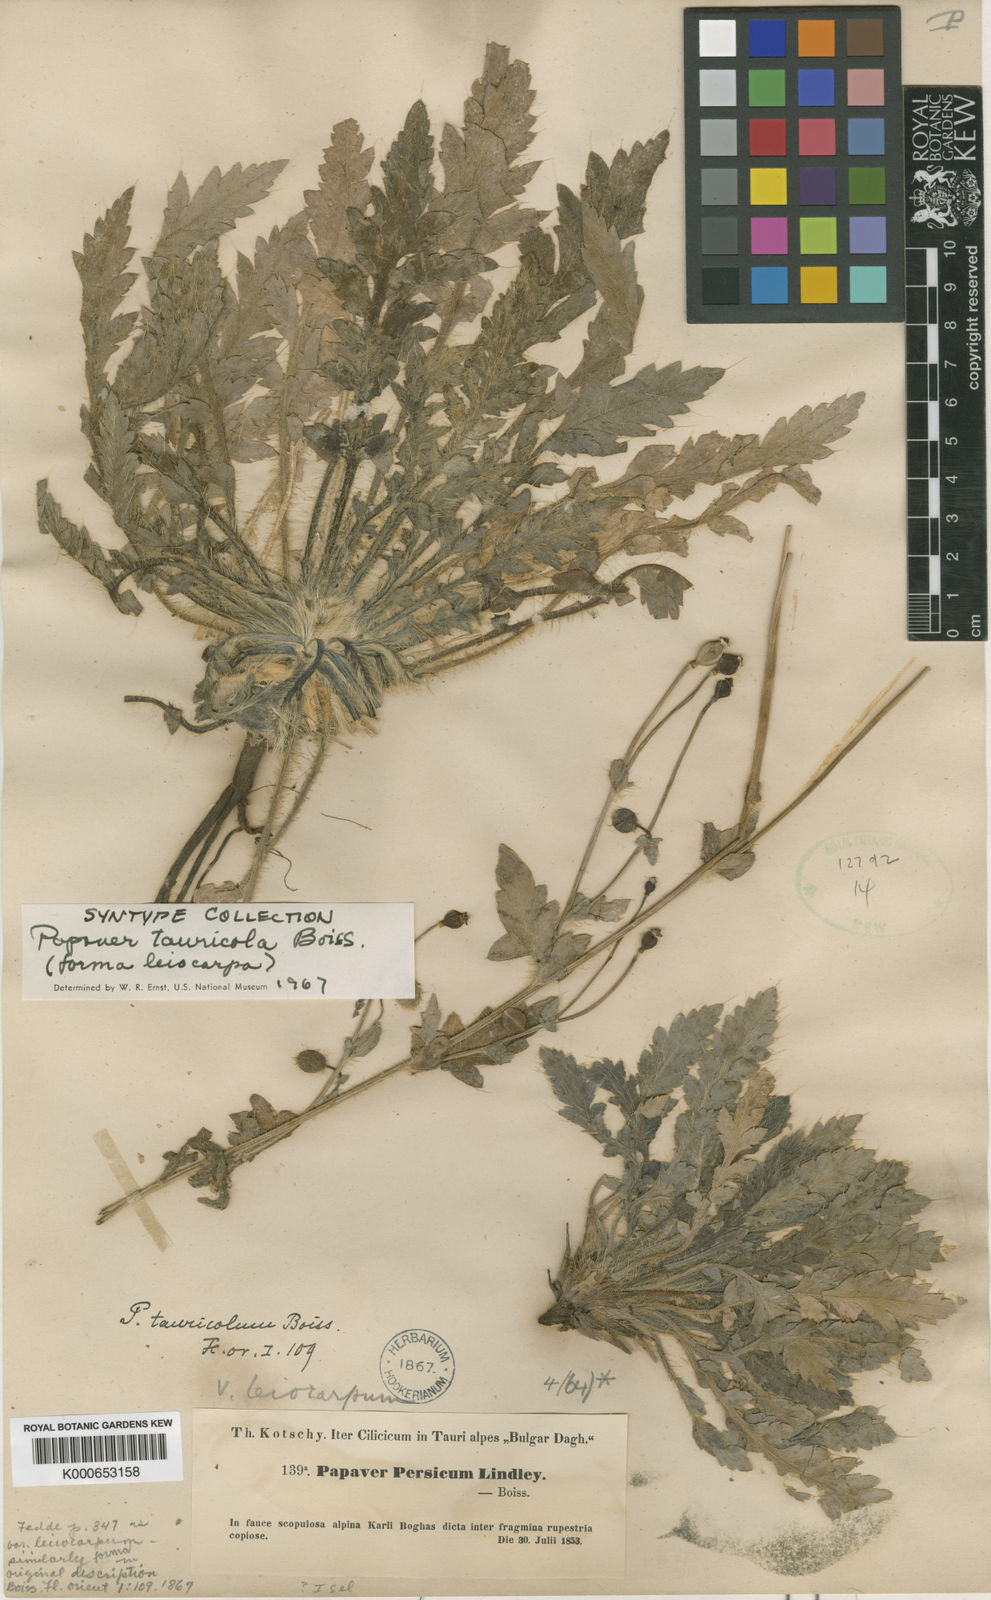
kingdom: Plantae
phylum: Tracheophyta
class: Magnoliopsida
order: Ranunculales
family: Papaveraceae
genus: Papaver
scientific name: Papaver persicum
